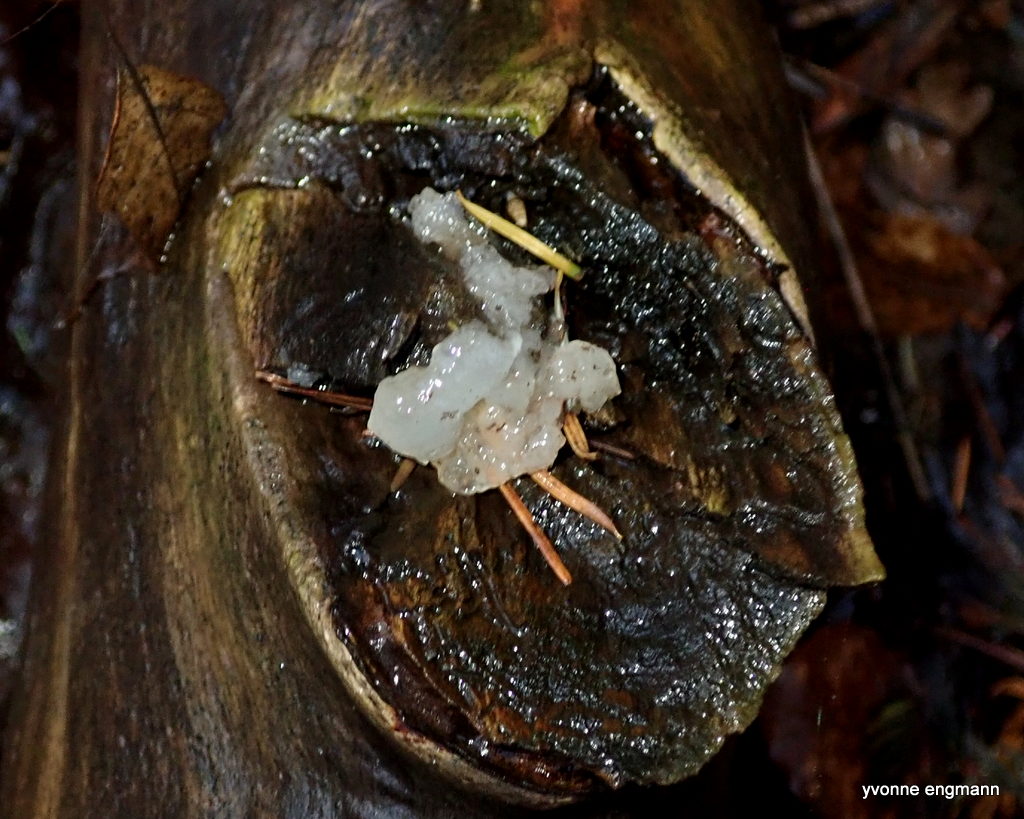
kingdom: Fungi
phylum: Basidiomycota
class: Agaricomycetes
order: Auriculariales
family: Hyaloriaceae
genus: Myxarium
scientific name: Myxarium nucleatum
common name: klar bævretop
